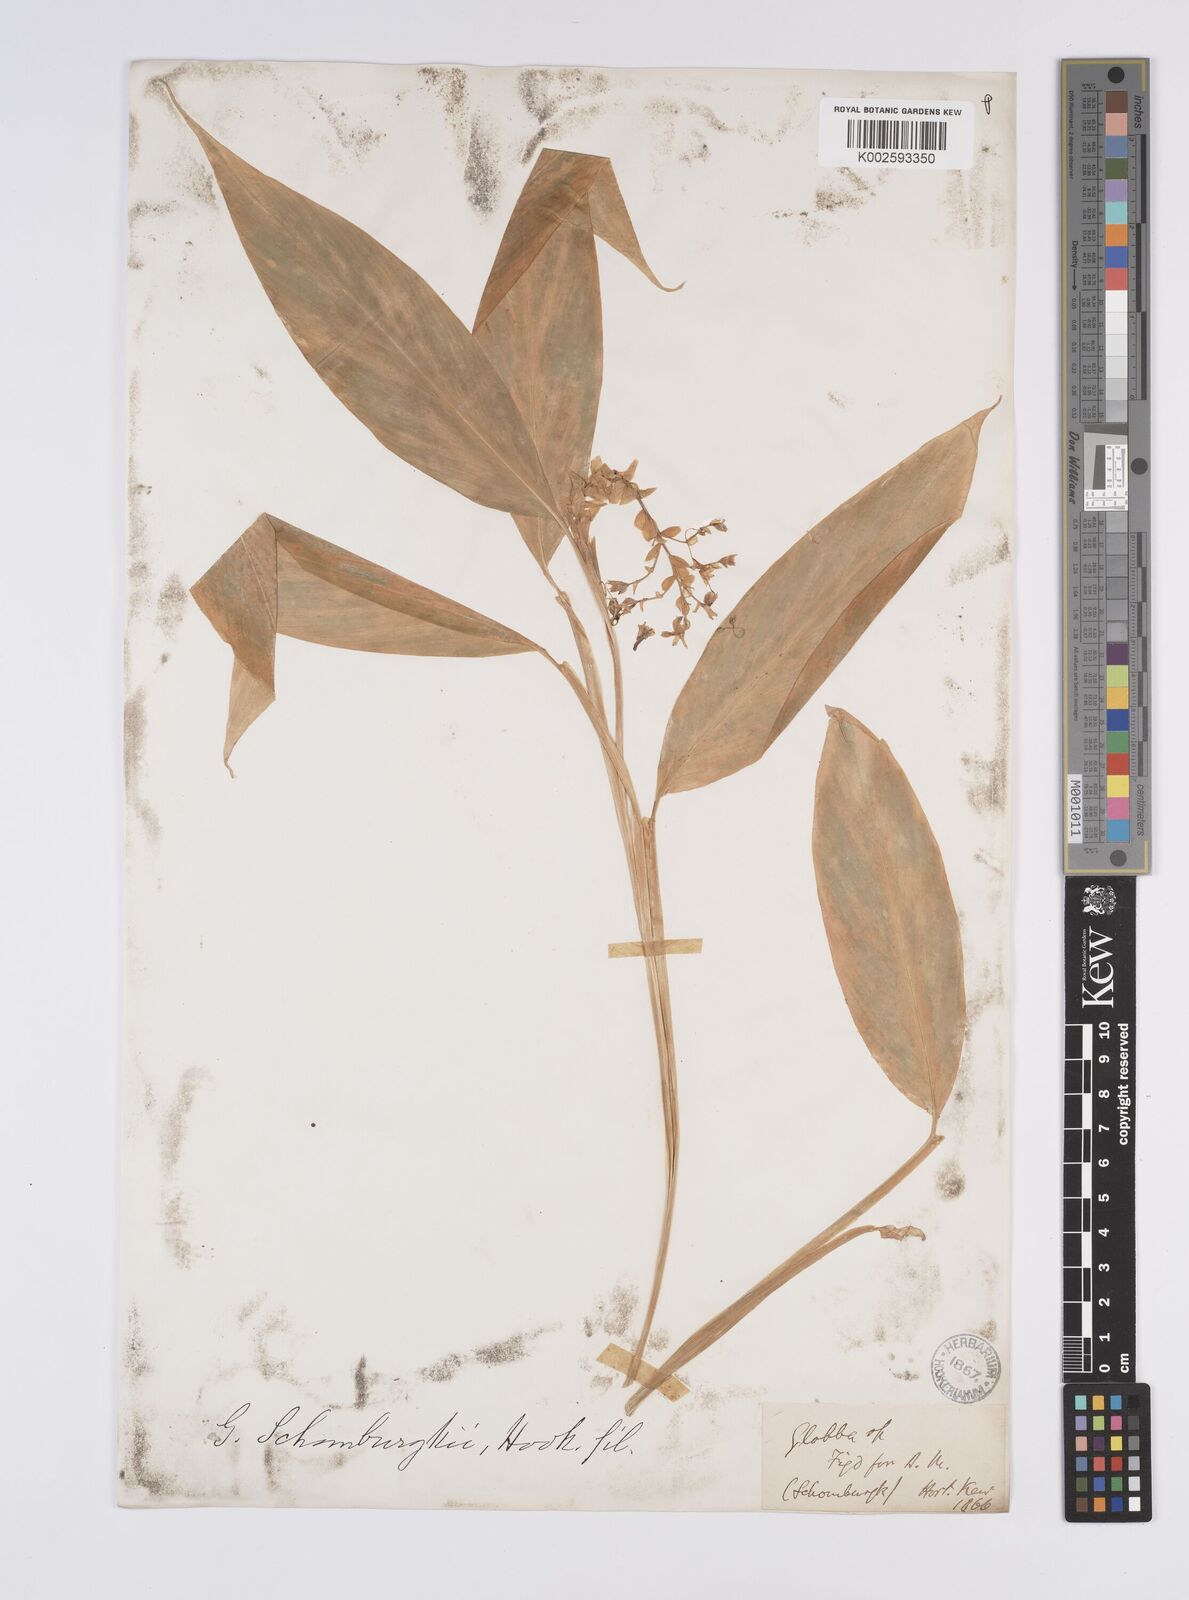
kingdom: Plantae
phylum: Tracheophyta
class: Liliopsida
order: Zingiberales
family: Zingiberaceae
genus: Globba
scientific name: Globba schomburgkii
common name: Dancing girl ginger
